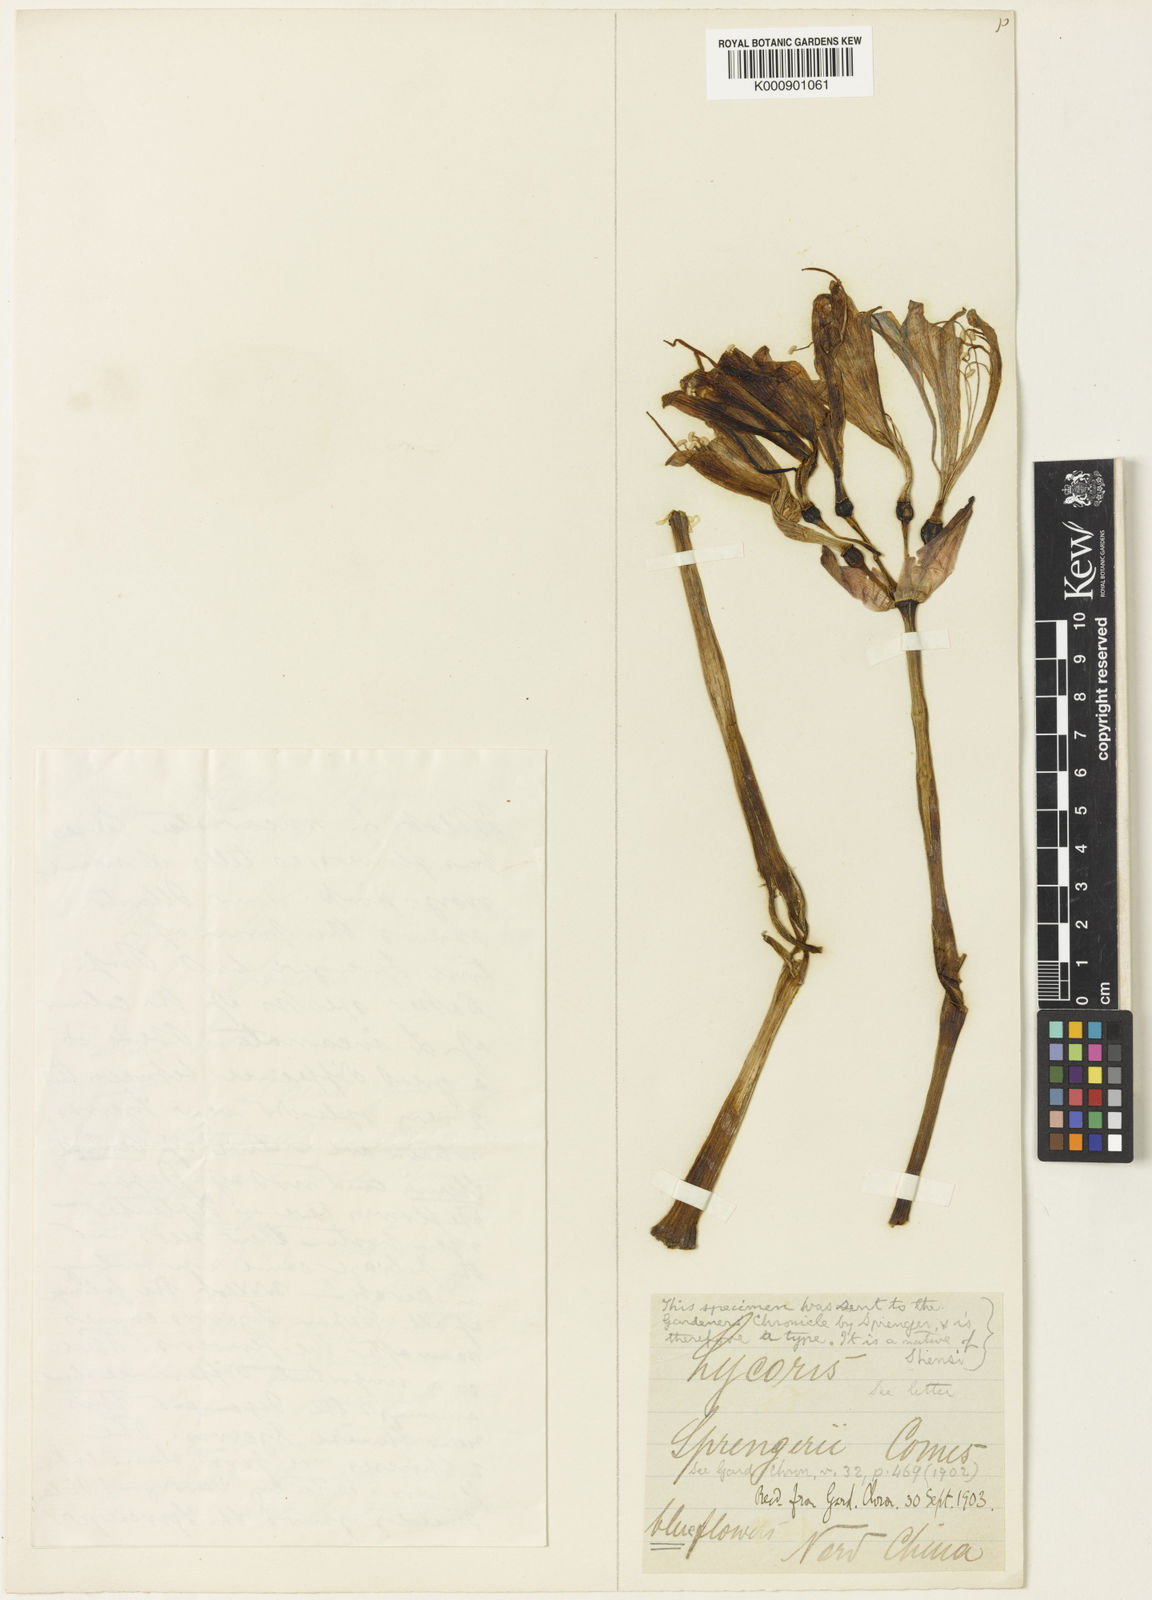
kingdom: Plantae
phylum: Tracheophyta
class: Liliopsida
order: Asparagales
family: Amaryllidaceae
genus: Lycoris
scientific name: Lycoris sprengeri
